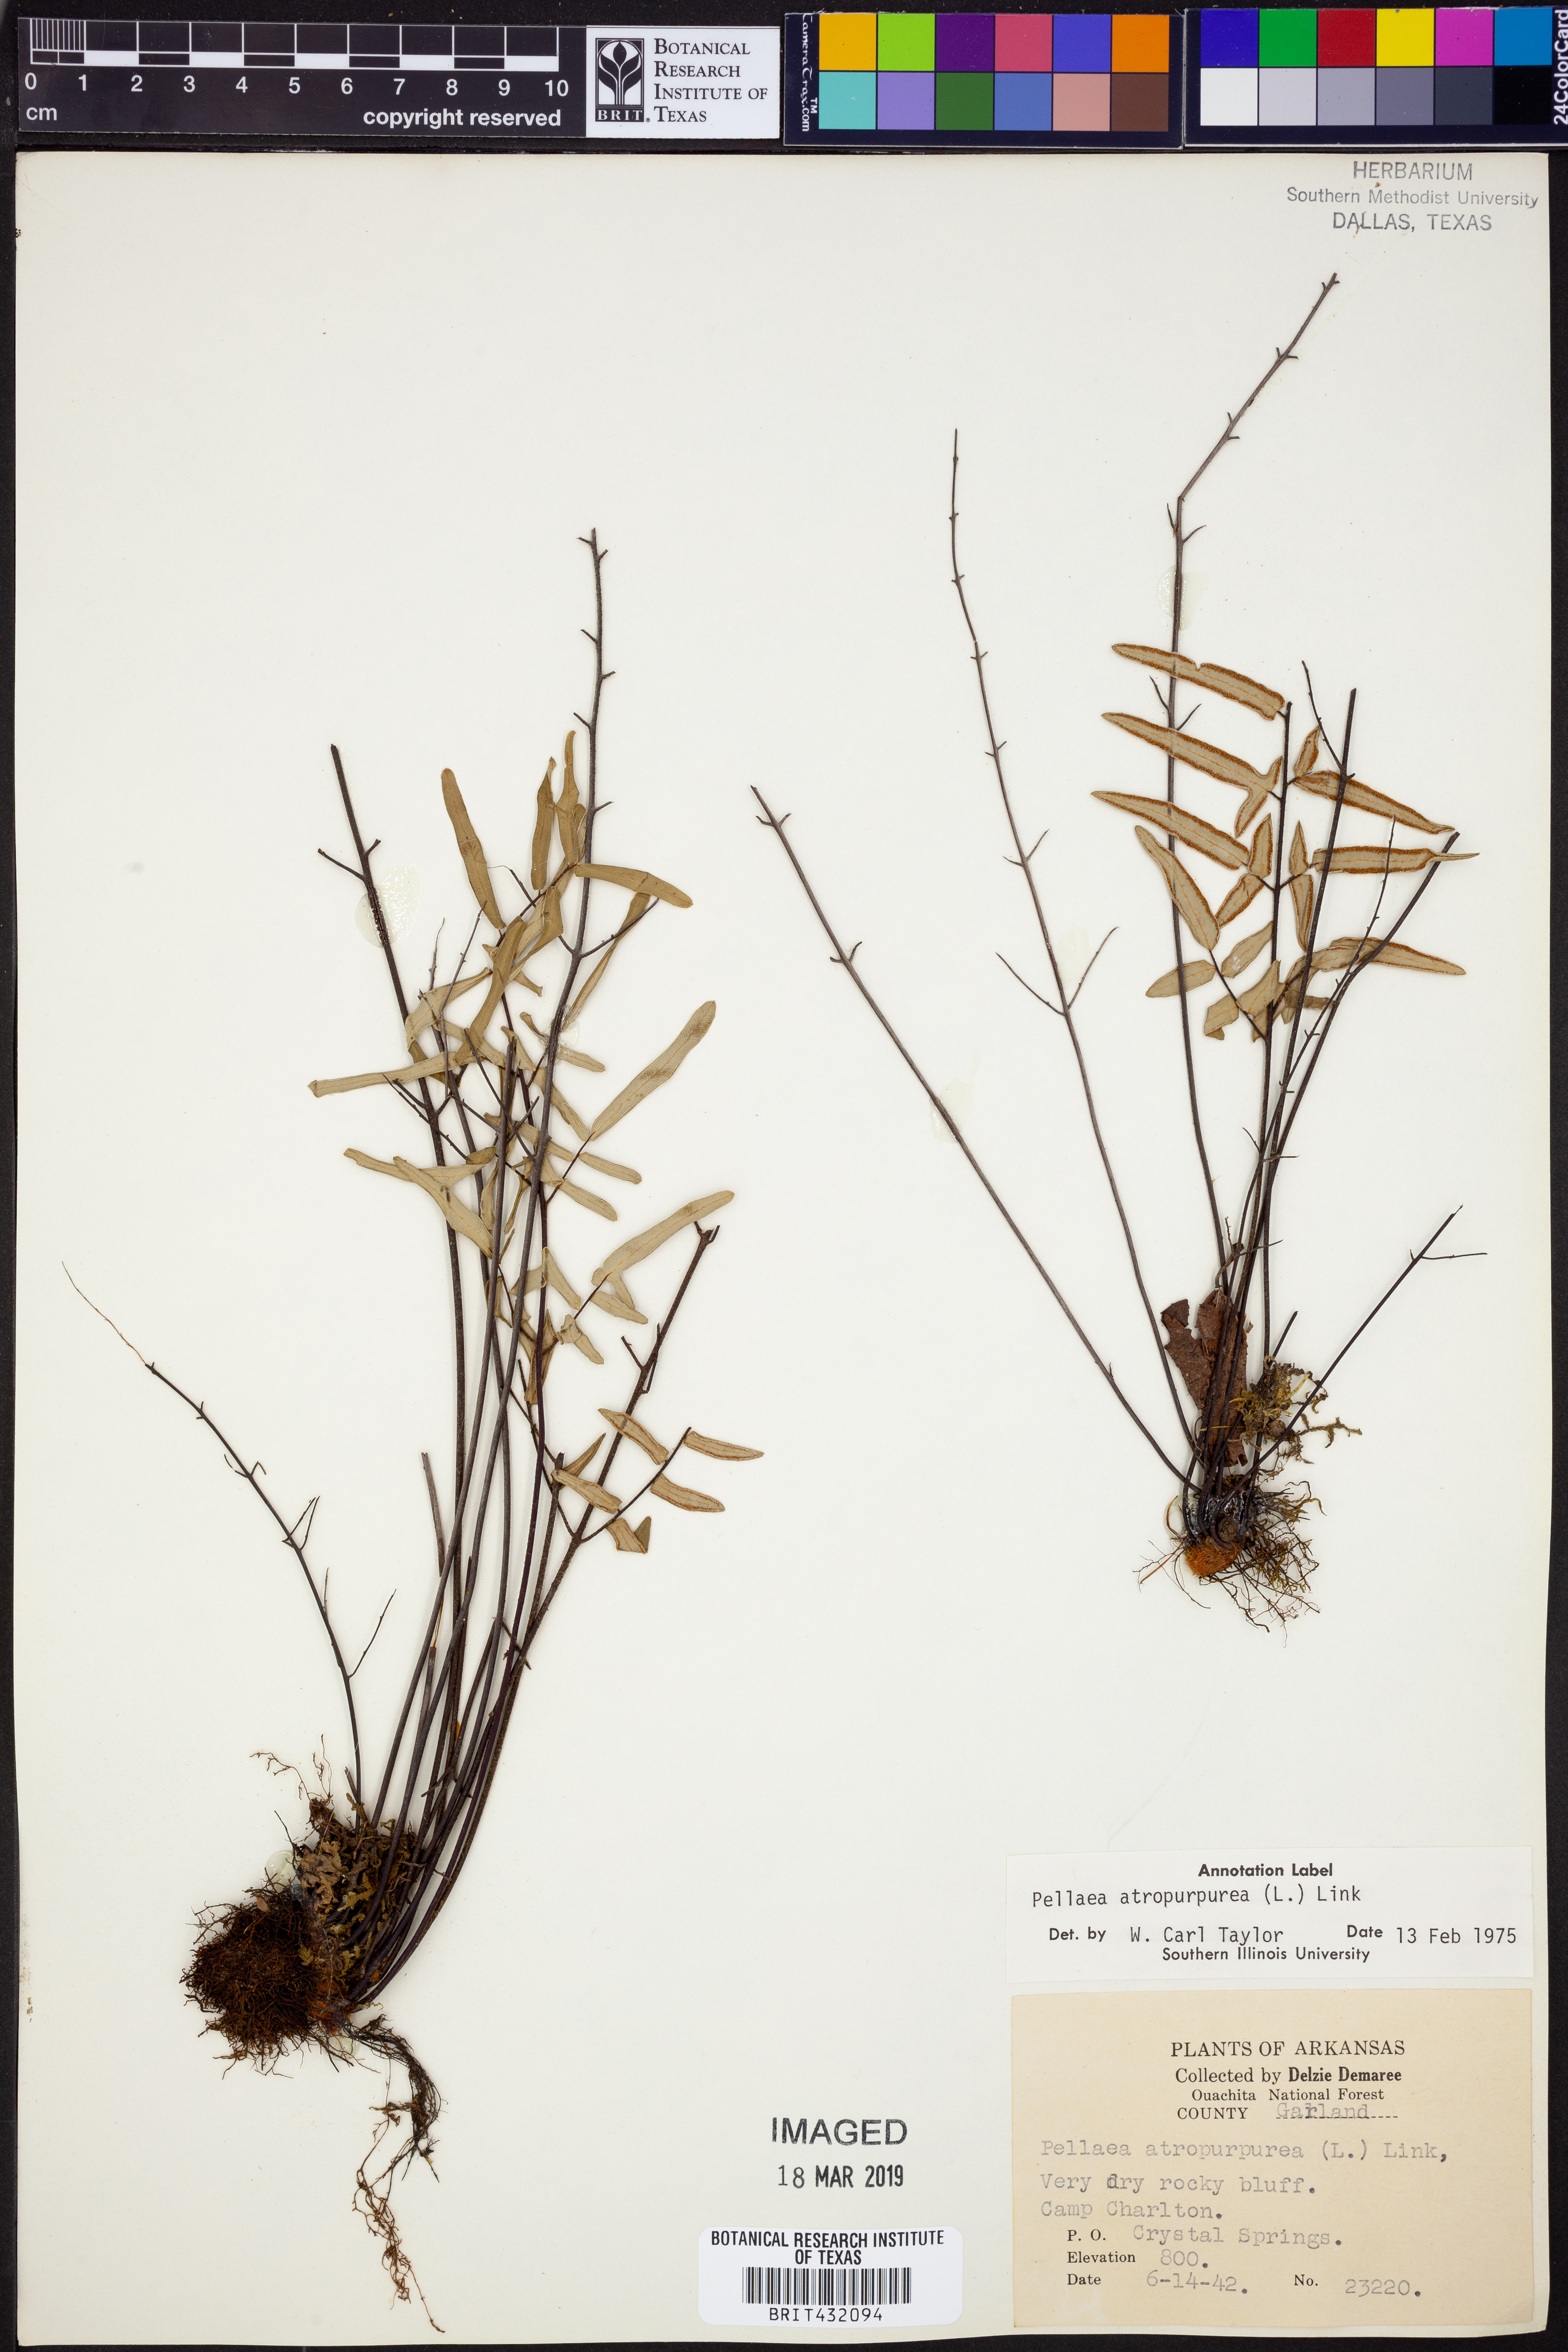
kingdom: Plantae
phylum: Tracheophyta
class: Polypodiopsida
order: Polypodiales
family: Pteridaceae
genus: Pellaea
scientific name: Pellaea atropurpurea
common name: Hairy cliffbrake
